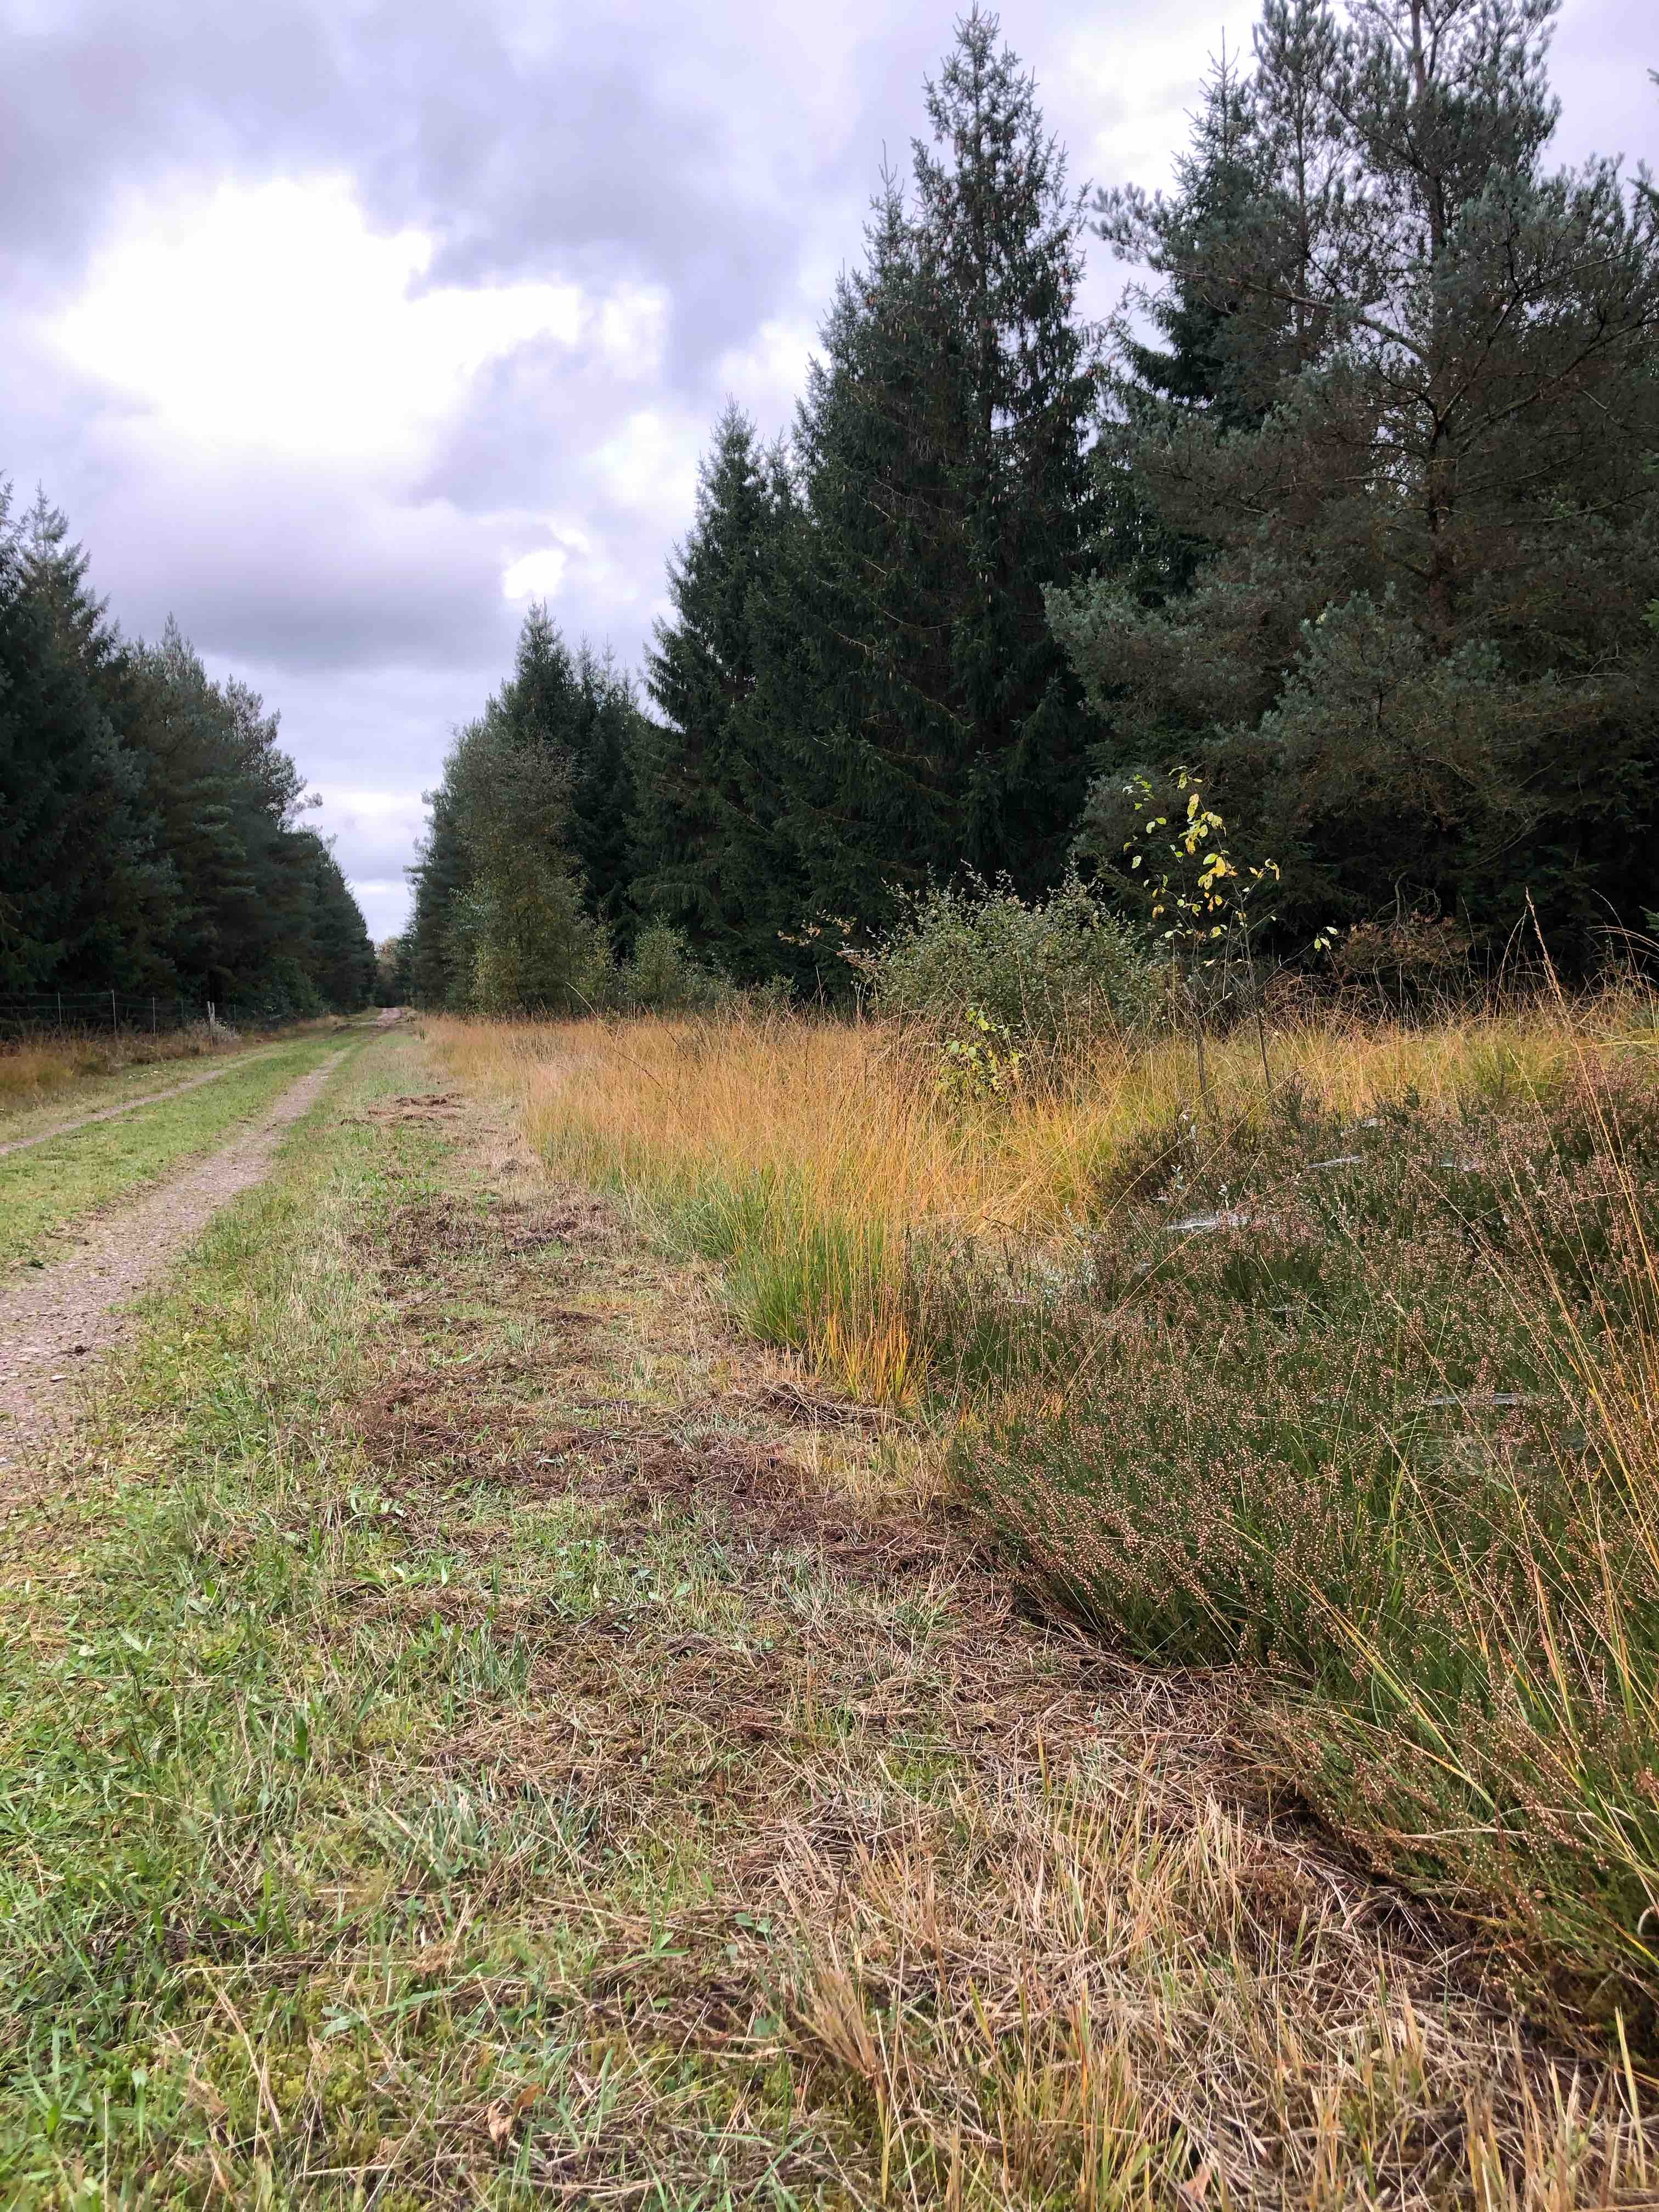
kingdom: Fungi
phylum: Basidiomycota
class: Agaricomycetes
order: Agaricales
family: Hygrophoraceae
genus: Hygrophorus
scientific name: Hygrophorus agathosmus
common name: vellugtende sneglehat
